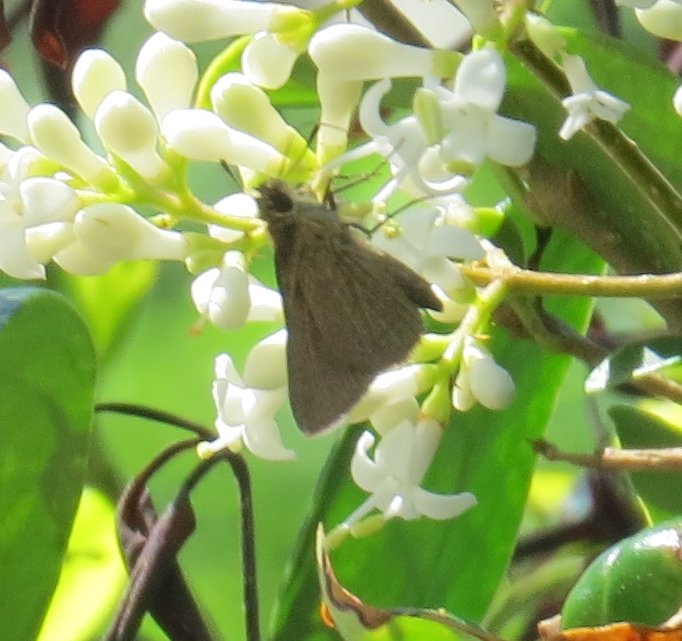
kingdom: Animalia
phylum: Arthropoda
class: Insecta
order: Lepidoptera
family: Hesperiidae
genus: Euphyes
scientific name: Euphyes vestris
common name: Dun Skipper
